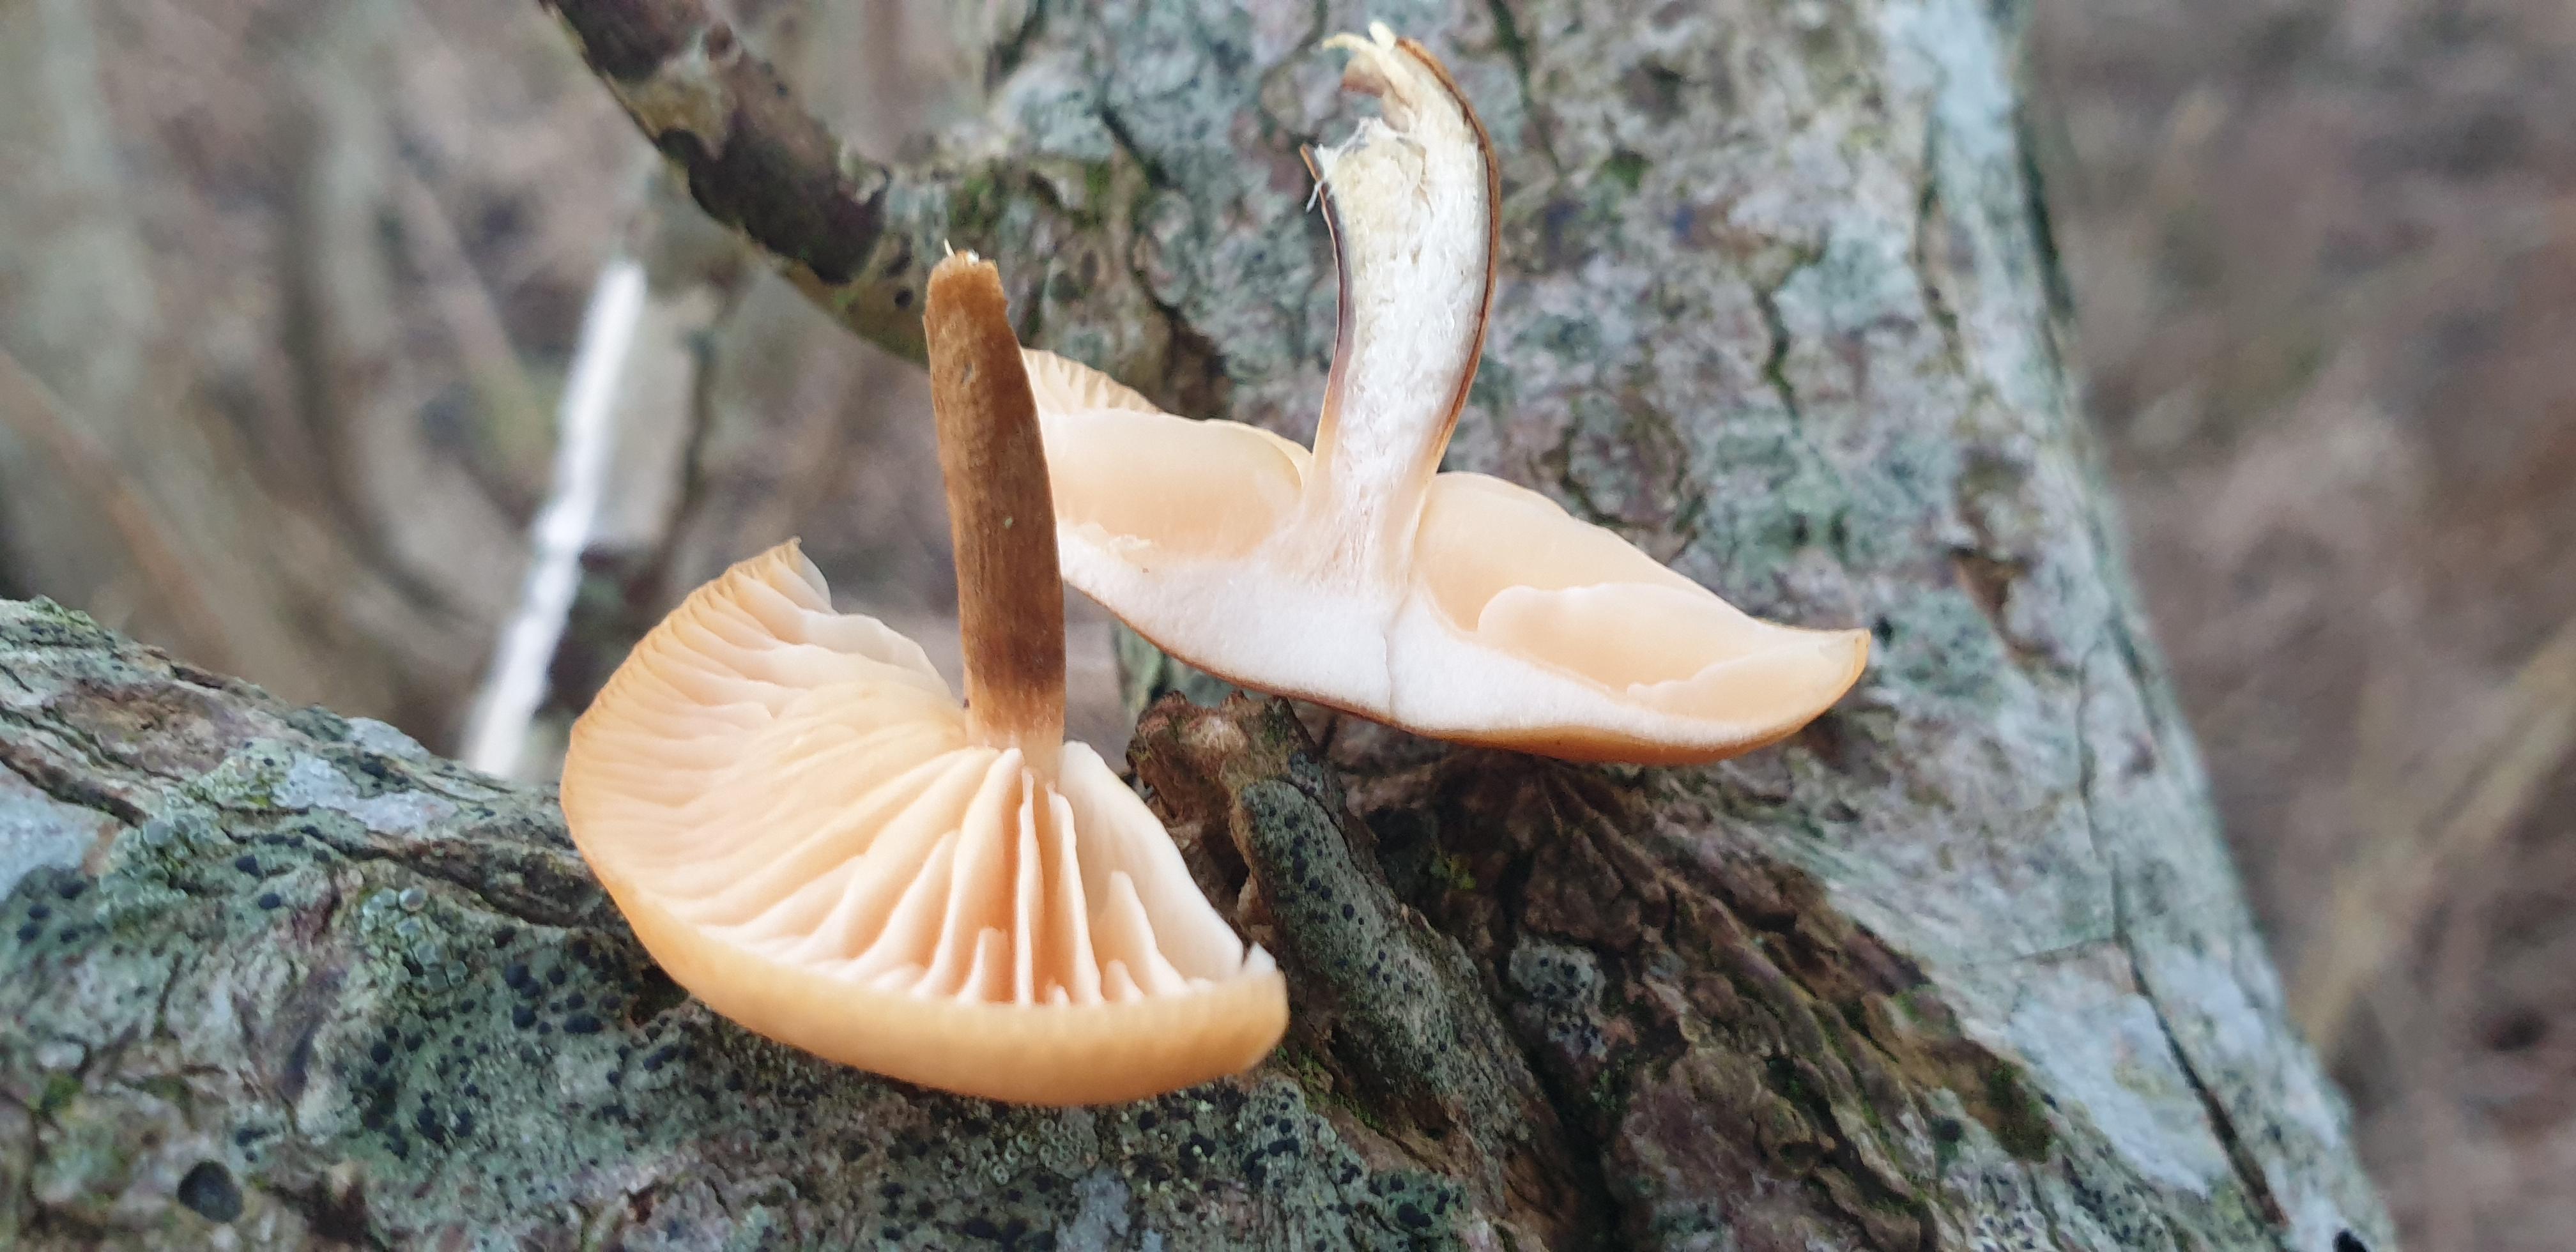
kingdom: Fungi
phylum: Basidiomycota
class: Agaricomycetes
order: Agaricales
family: Physalacriaceae
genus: Flammulina
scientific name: Flammulina
